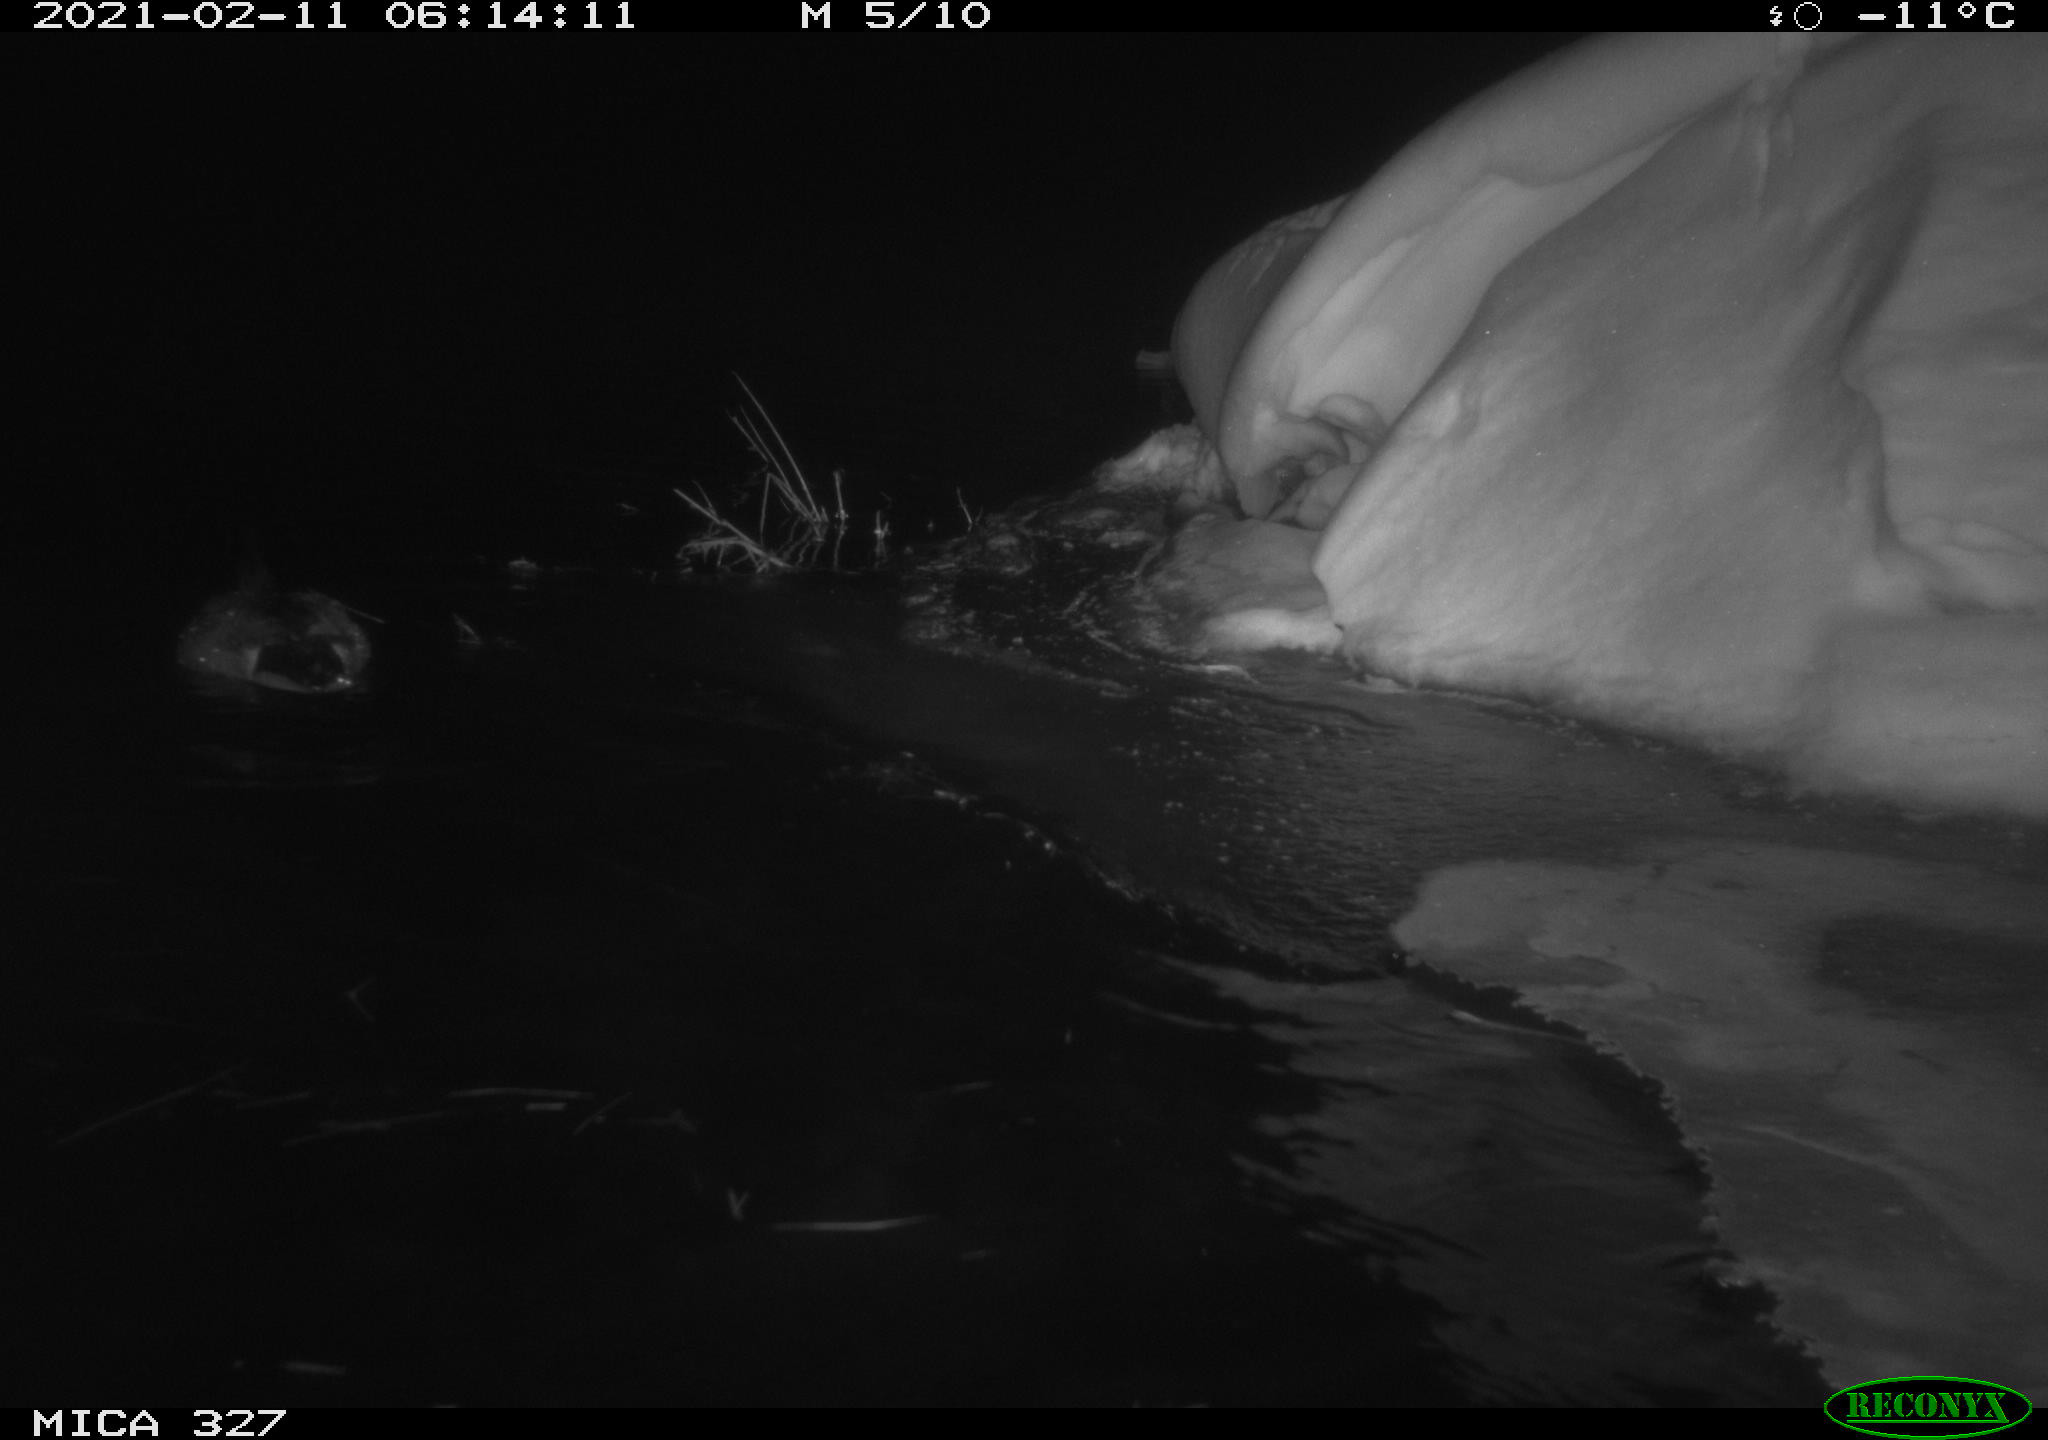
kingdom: Animalia
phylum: Chordata
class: Aves
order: Anseriformes
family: Anatidae
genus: Anas
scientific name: Anas
